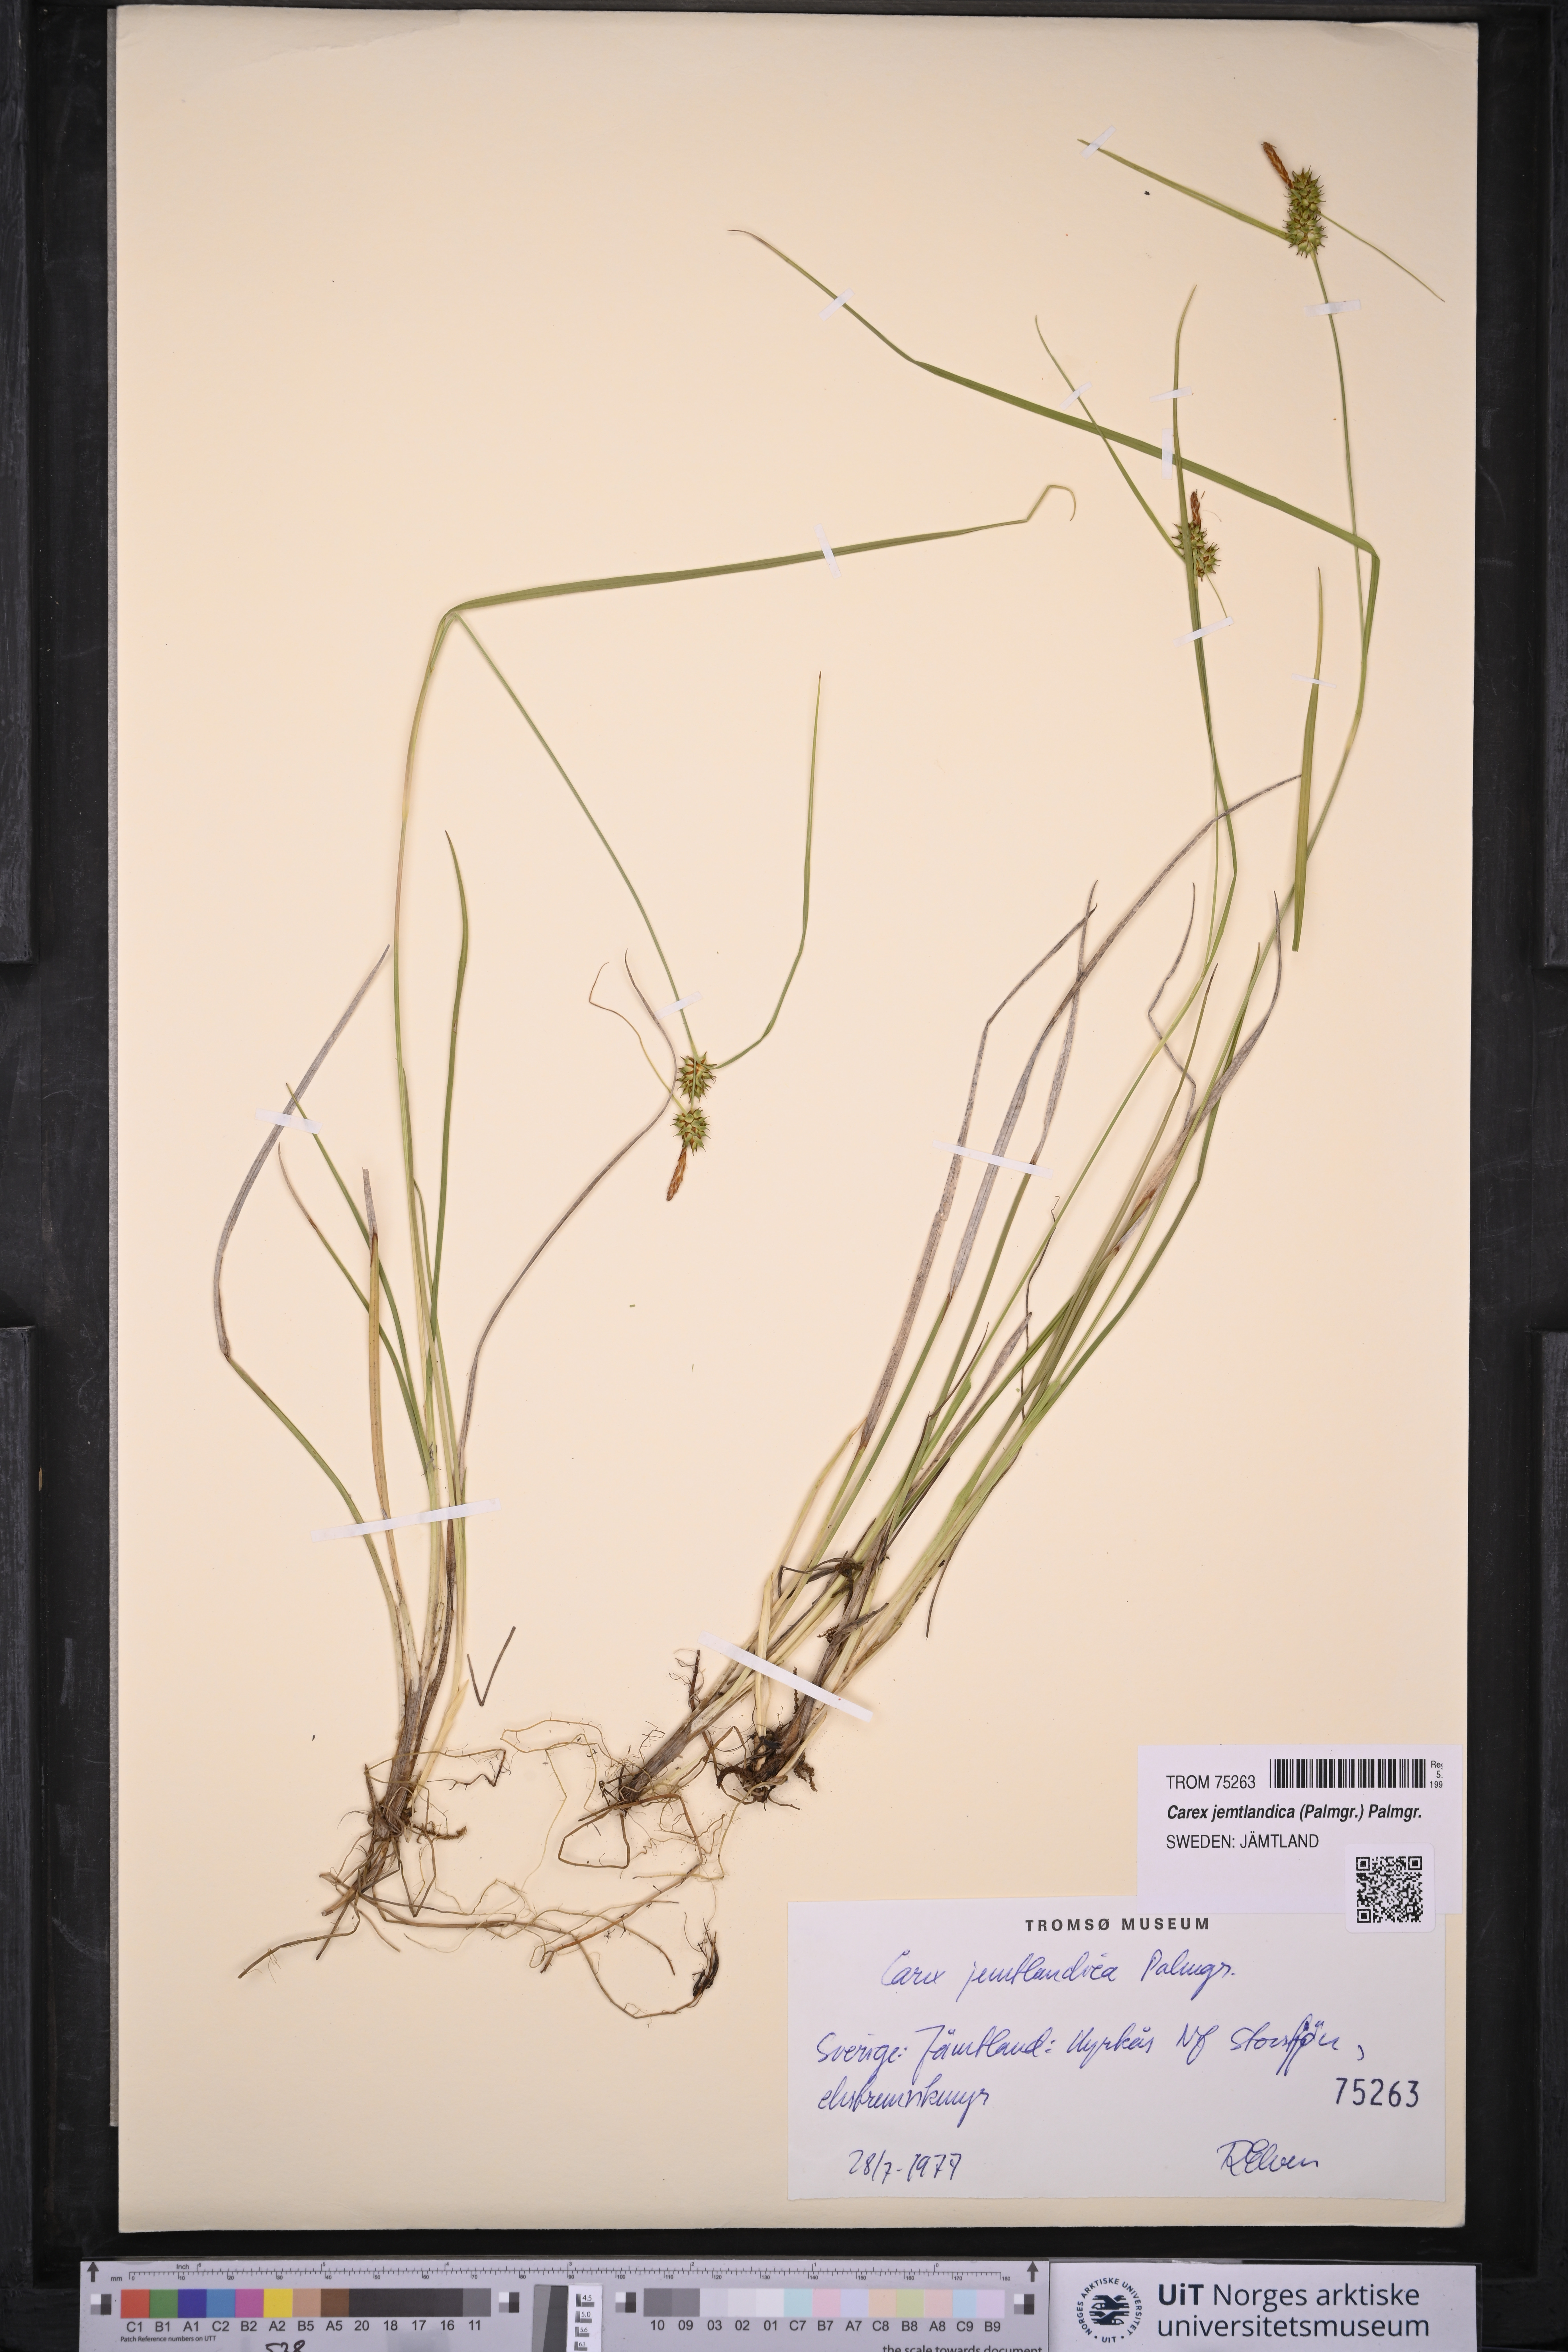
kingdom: Plantae
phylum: Tracheophyta
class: Liliopsida
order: Poales
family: Cyperaceae
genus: Carex
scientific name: Carex lepidocarpa
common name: Long-stalked yellow-sedge
